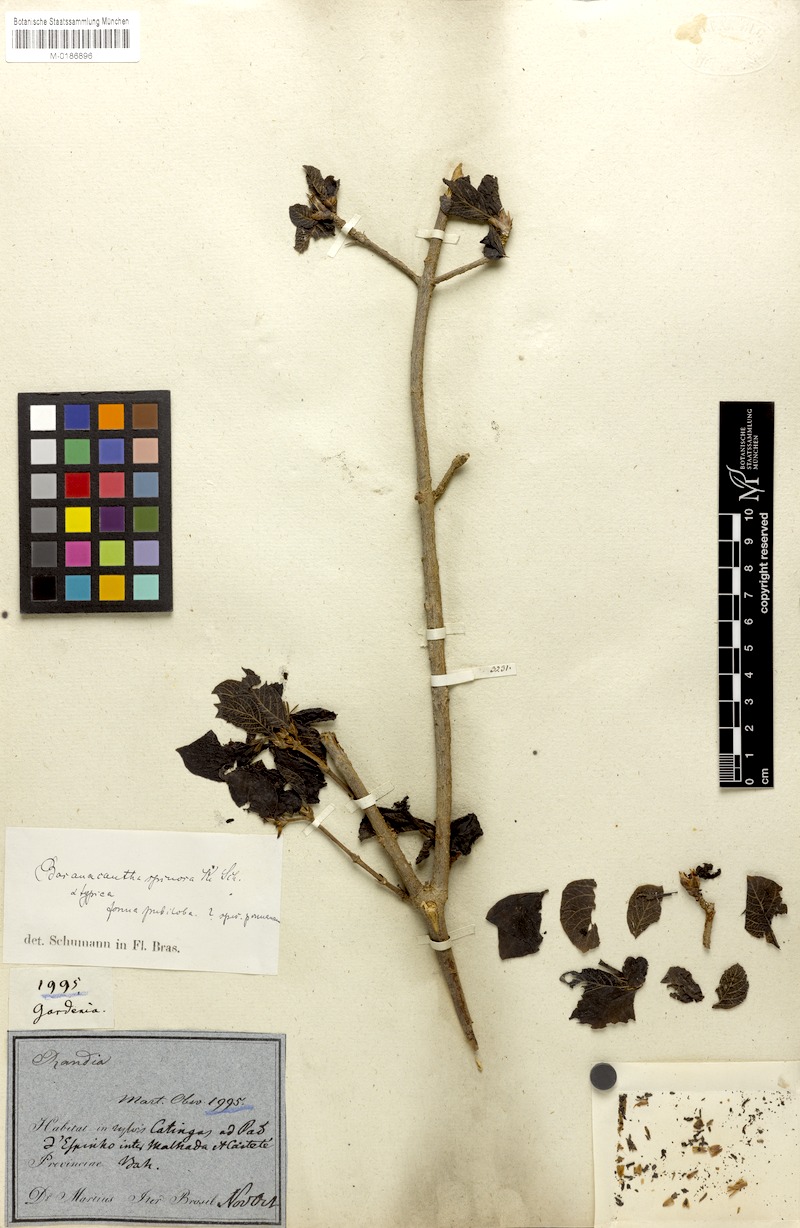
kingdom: Plantae
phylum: Tracheophyta
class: Magnoliopsida
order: Gentianales
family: Rubiaceae
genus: Randia
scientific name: Randia armata
